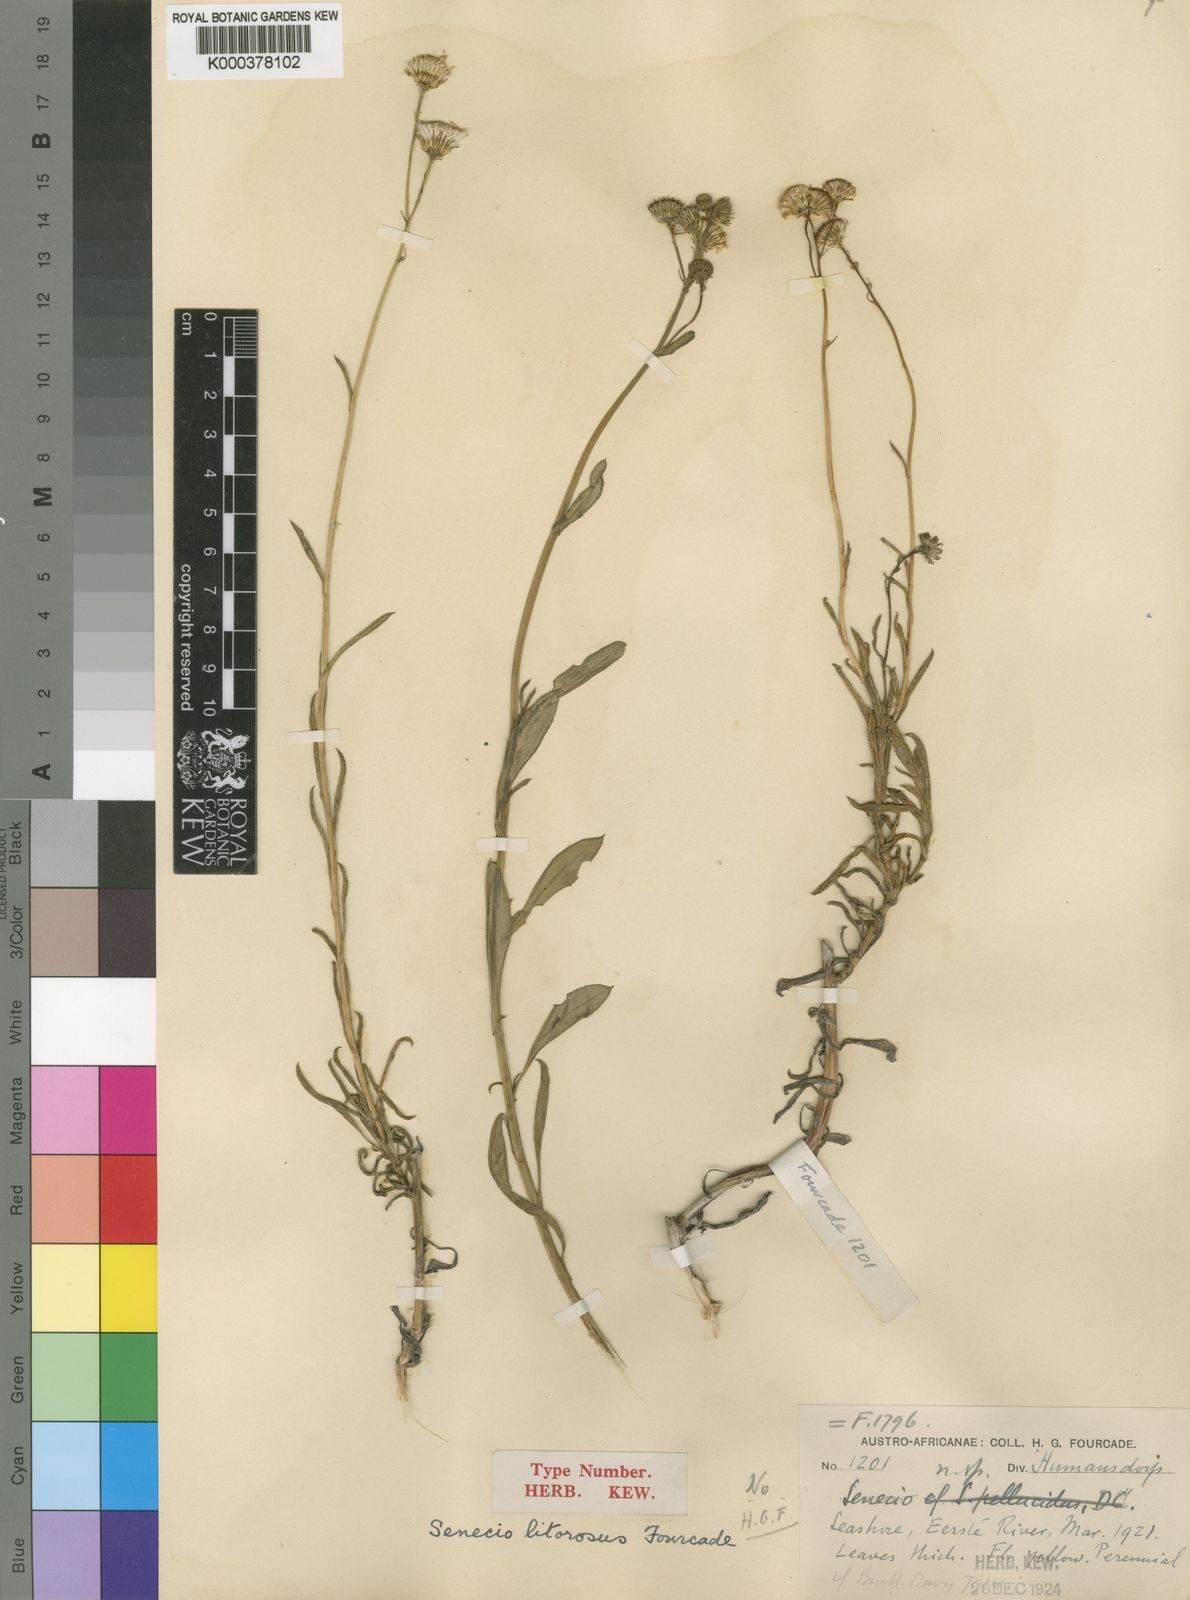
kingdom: Plantae
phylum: Tracheophyta
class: Magnoliopsida
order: Asterales
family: Asteraceae
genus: Senecio
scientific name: Senecio litorosus
